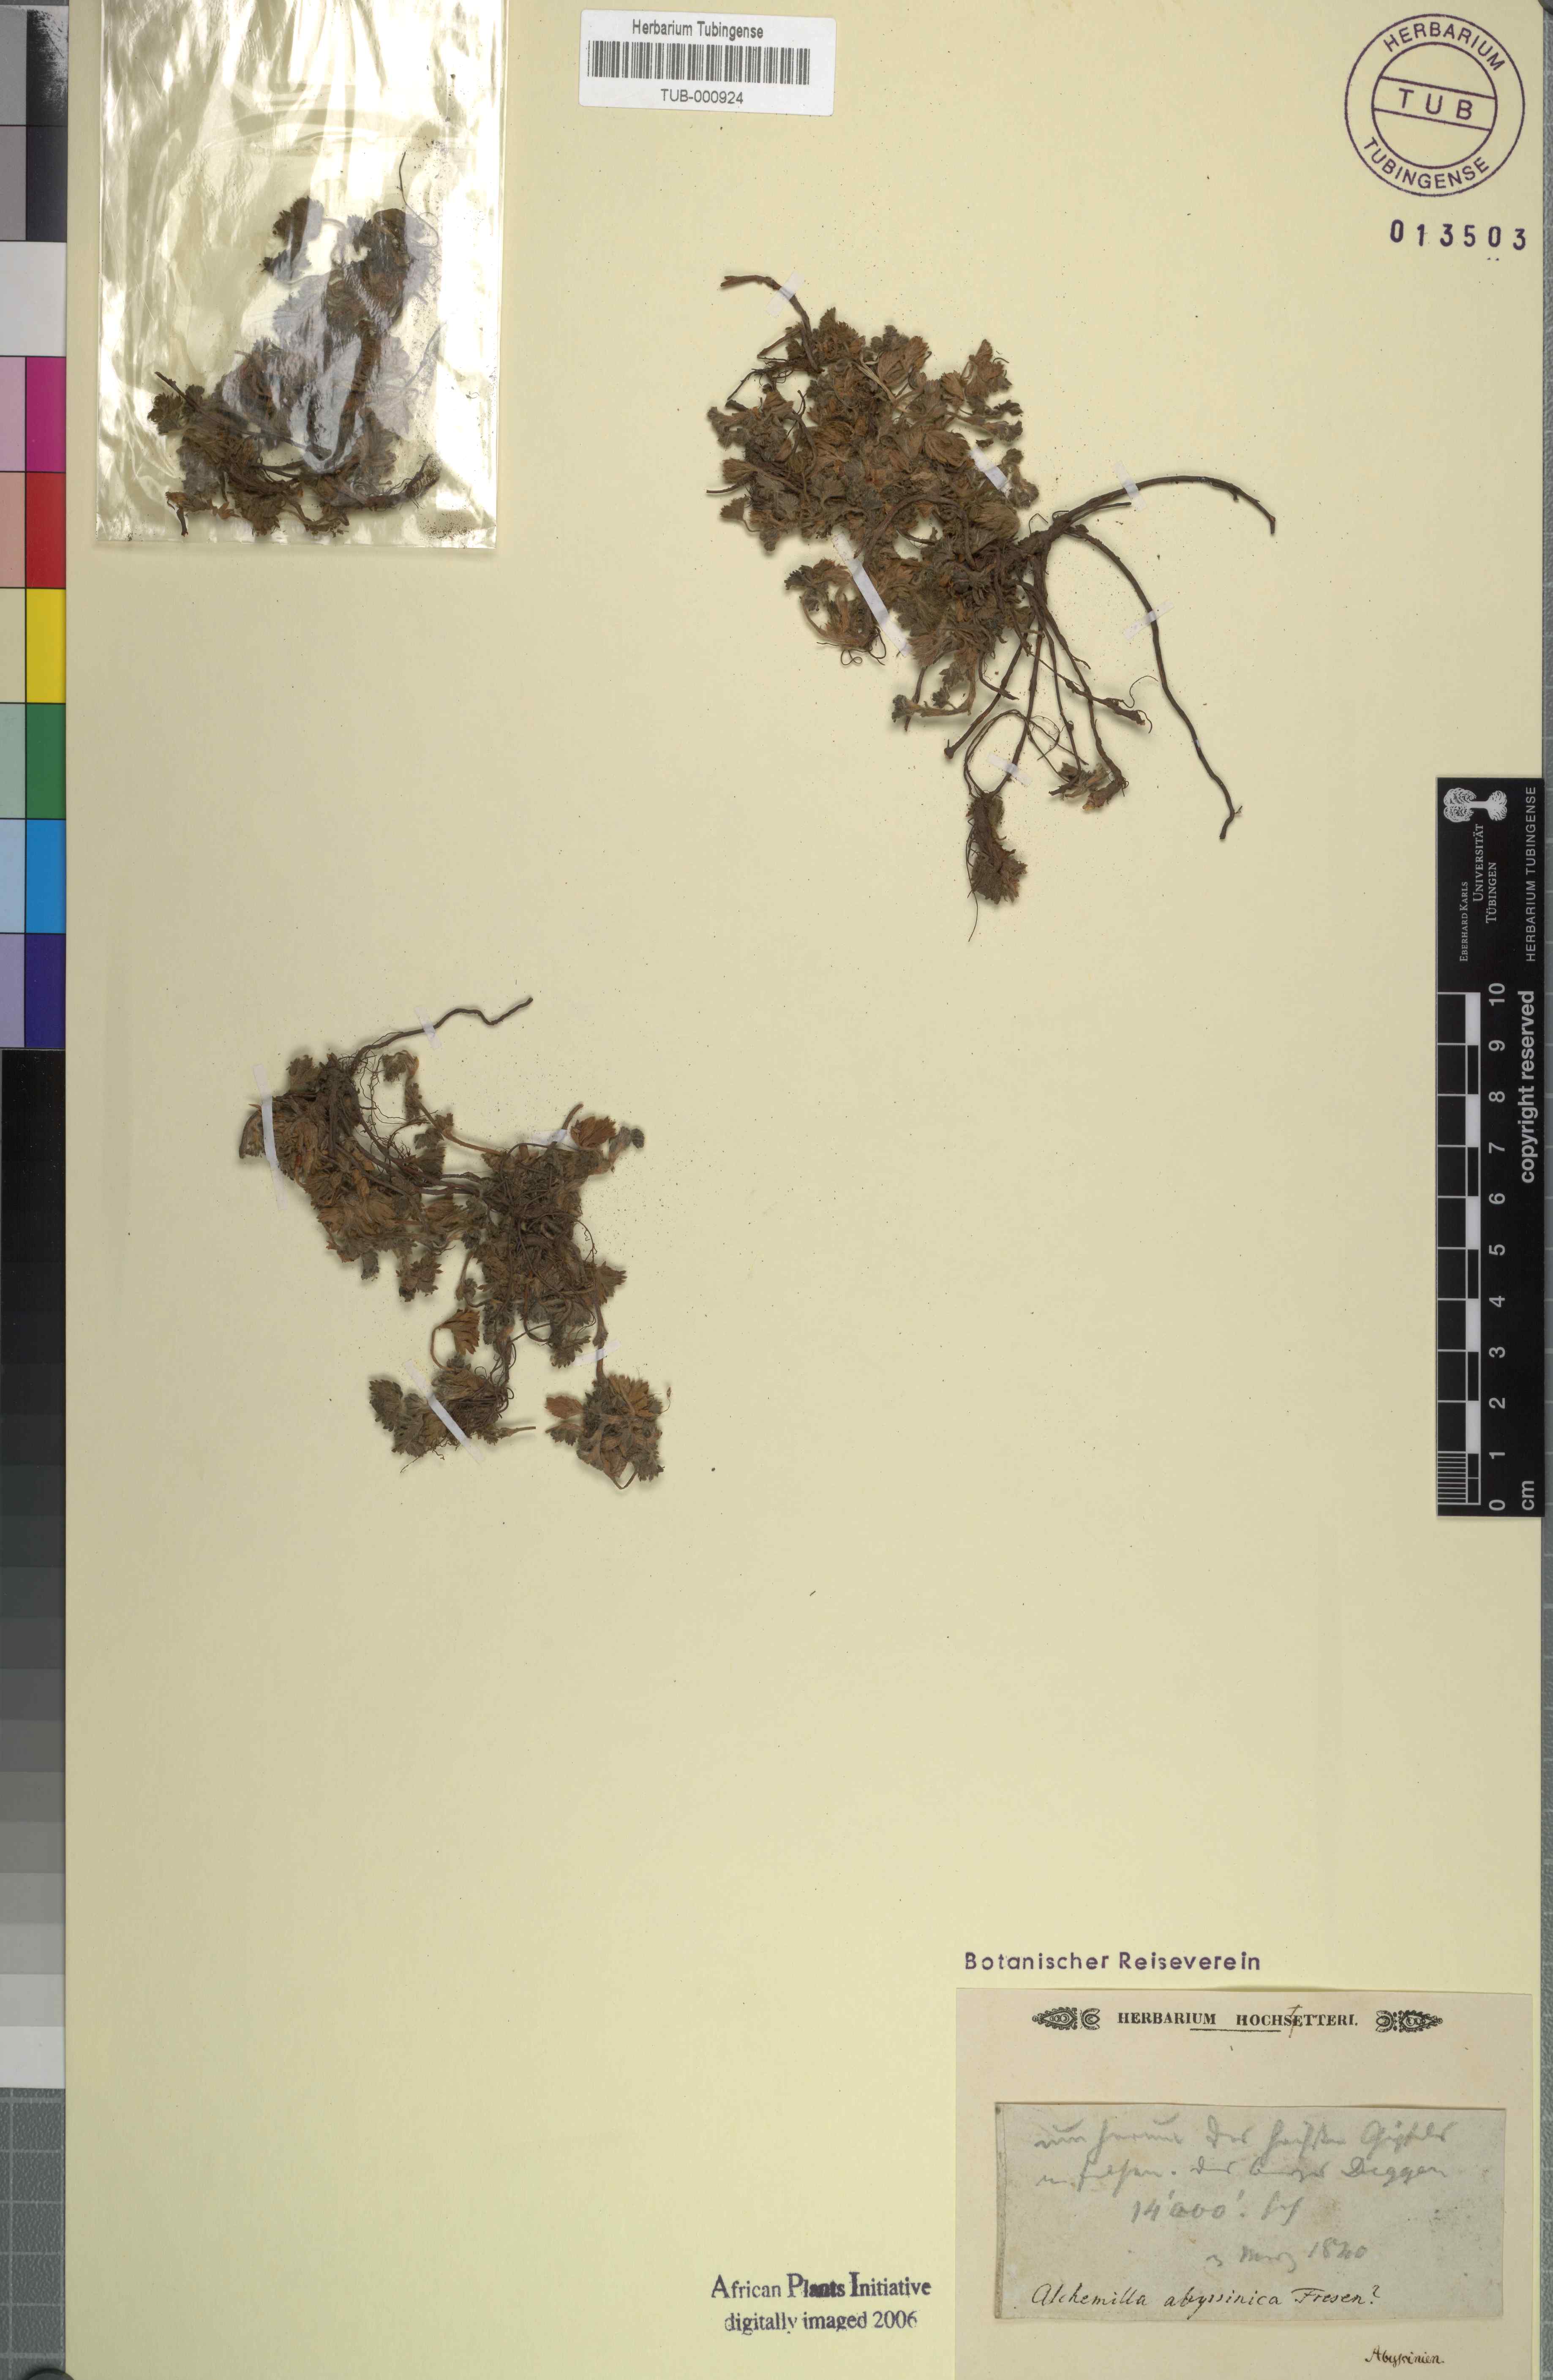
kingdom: Plantae
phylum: Tracheophyta
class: Magnoliopsida
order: Rosales
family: Rosaceae
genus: Alchemilla
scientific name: Alchemilla abyssinica
